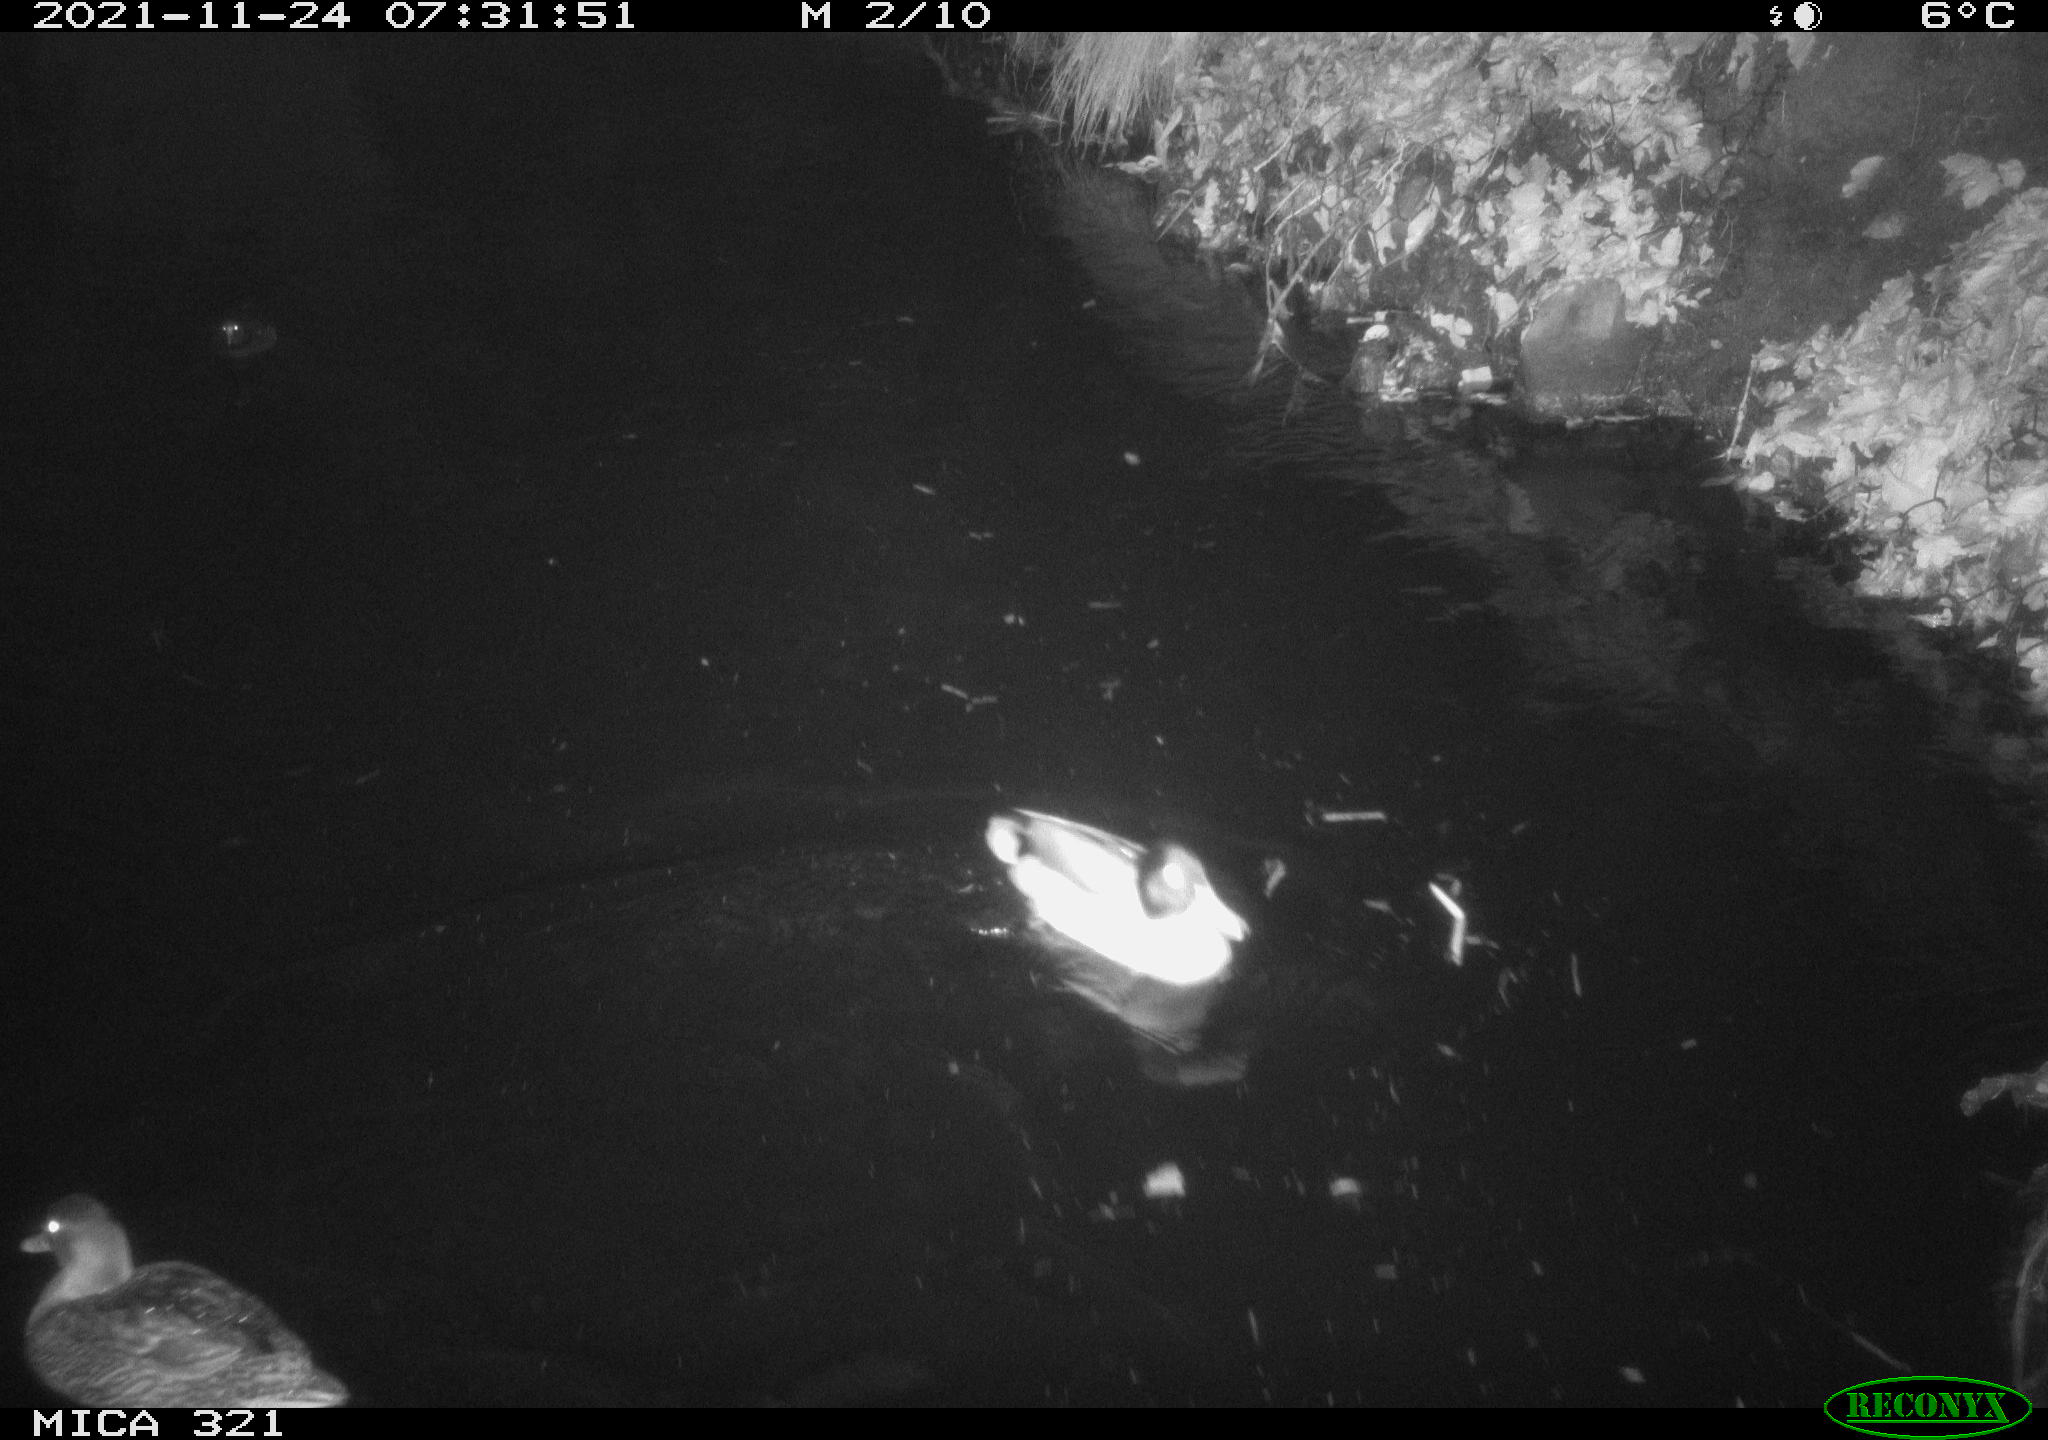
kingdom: Animalia
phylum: Chordata
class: Aves
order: Anseriformes
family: Anatidae
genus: Mareca
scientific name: Mareca strepera
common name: Gadwall
